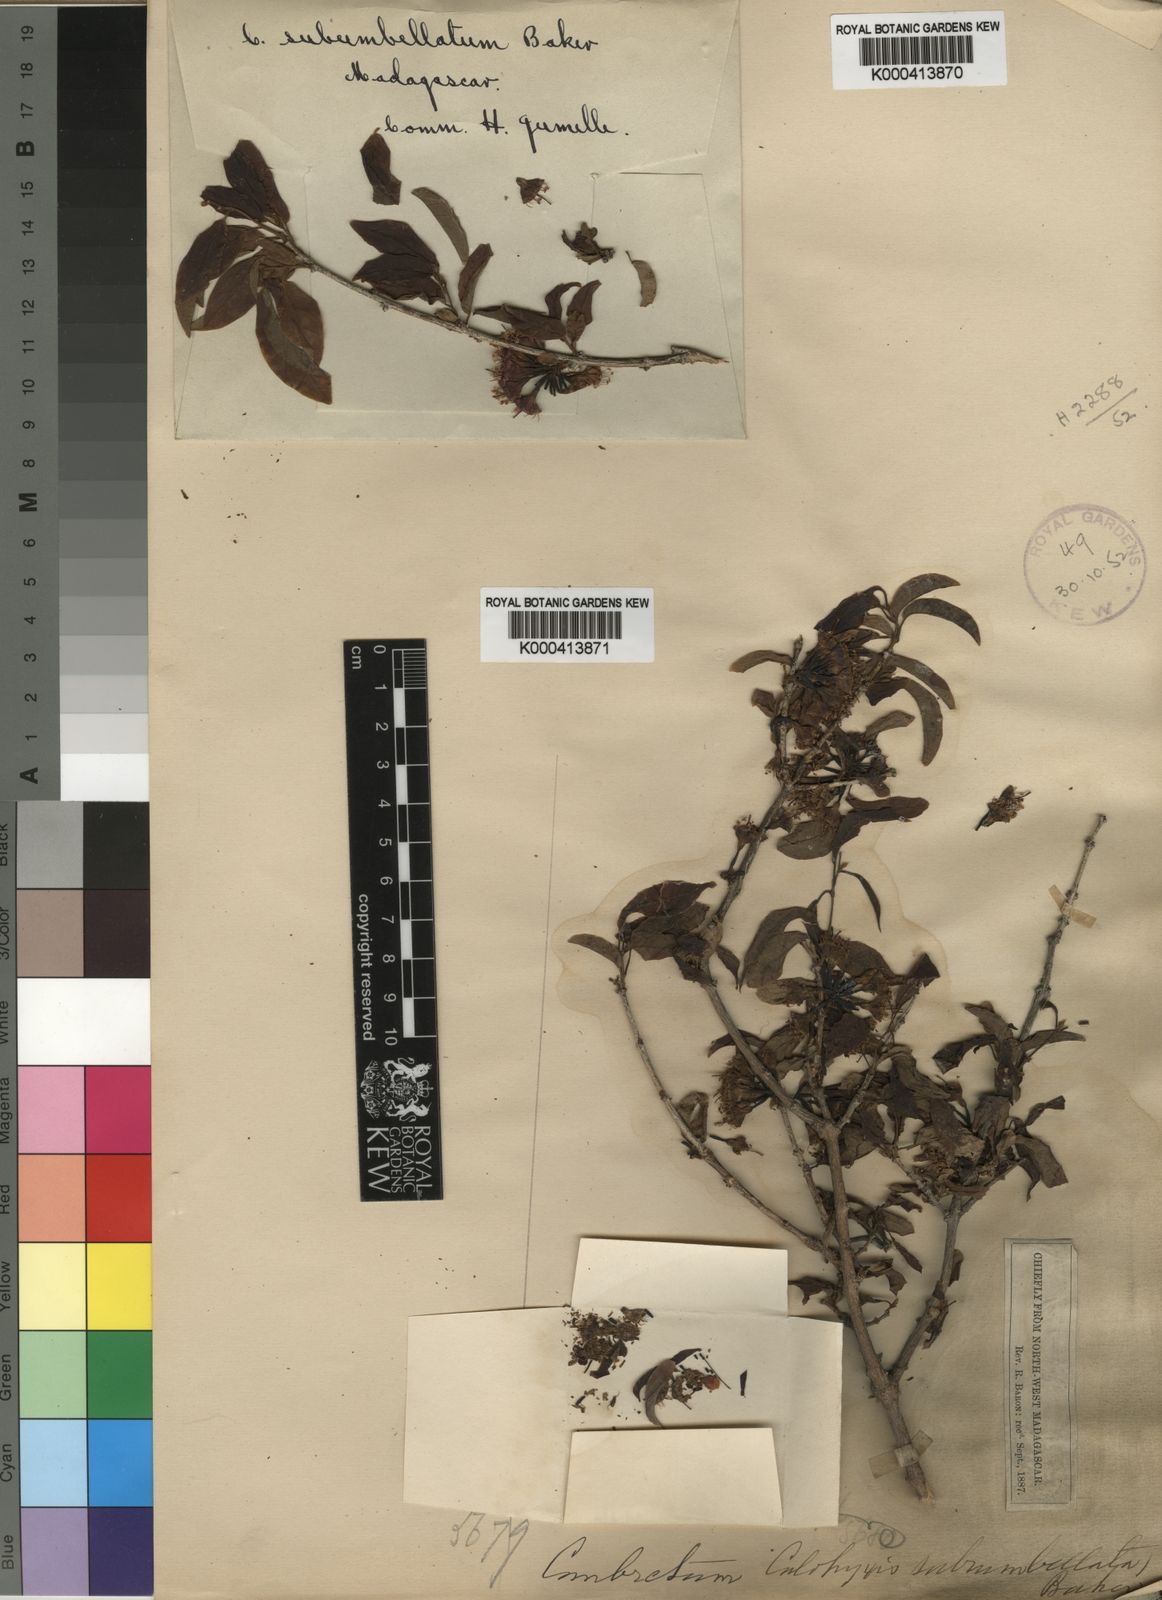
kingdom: Plantae
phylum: Tracheophyta
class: Magnoliopsida
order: Myrtales
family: Combretaceae
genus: Combretum
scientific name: Combretum subumbellatum
